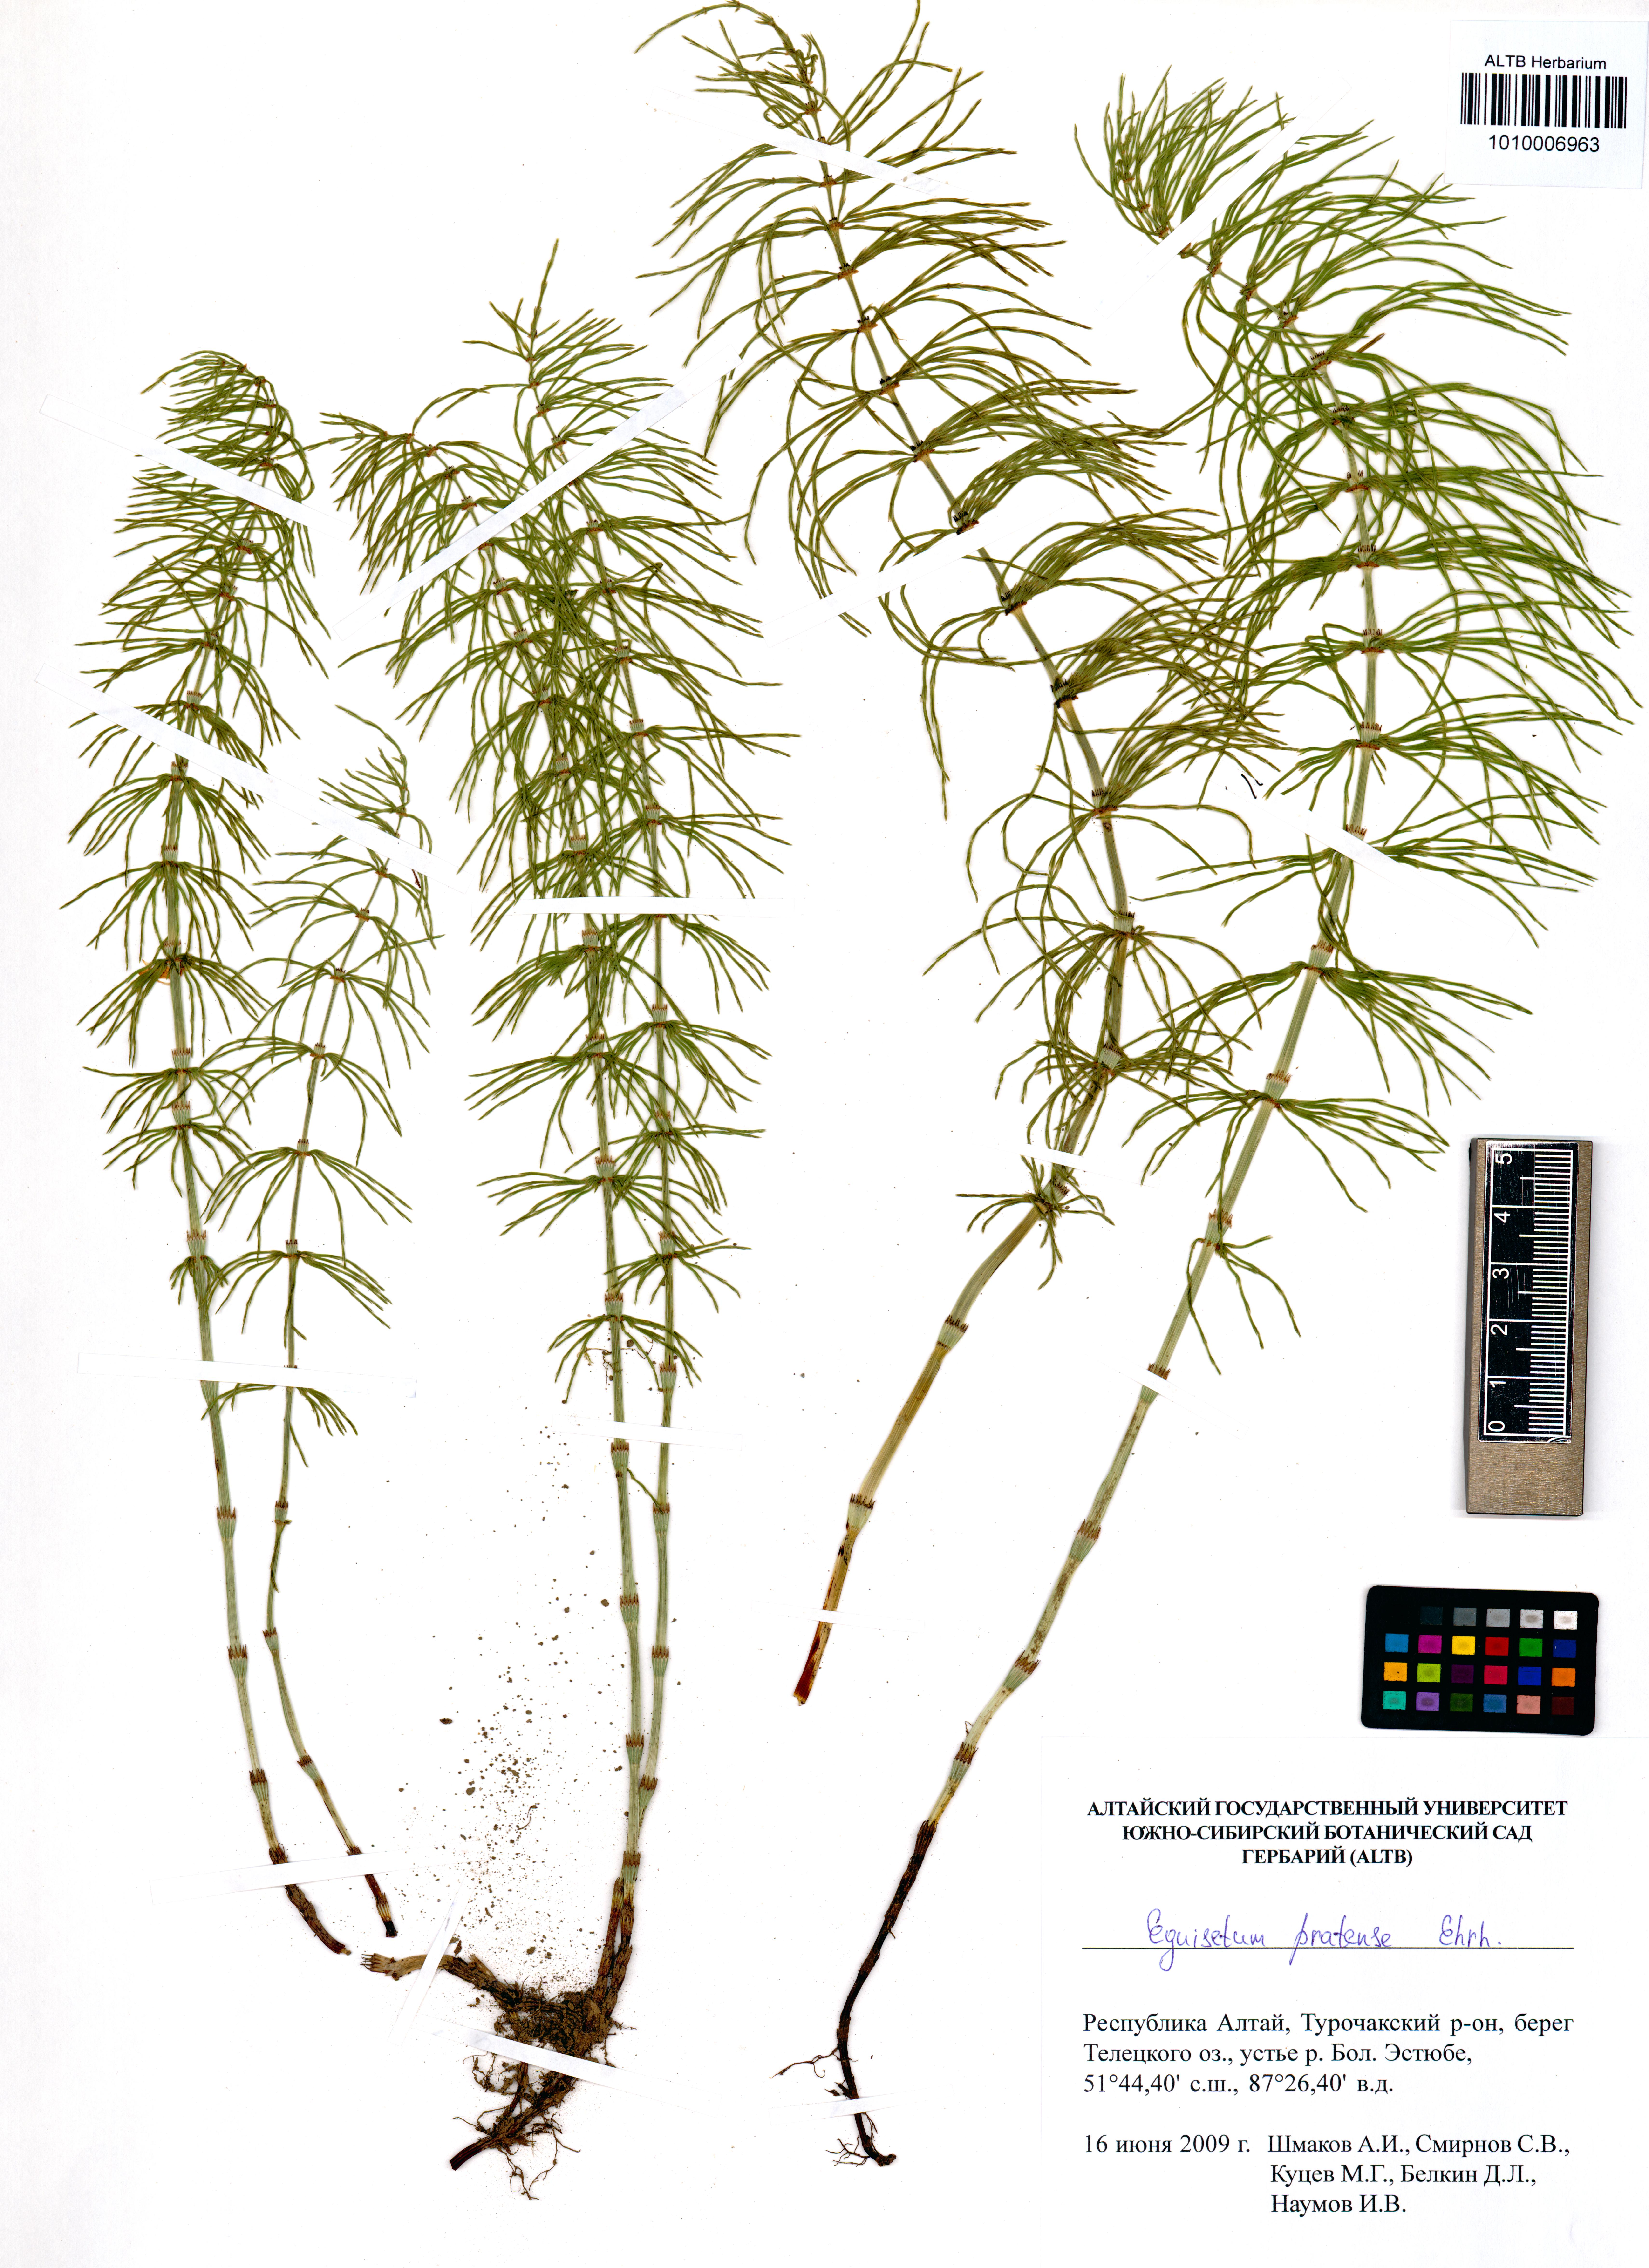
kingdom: Plantae
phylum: Tracheophyta
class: Polypodiopsida
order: Equisetales
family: Equisetaceae
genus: Equisetum
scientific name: Equisetum pratense
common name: Meadow horsetail
